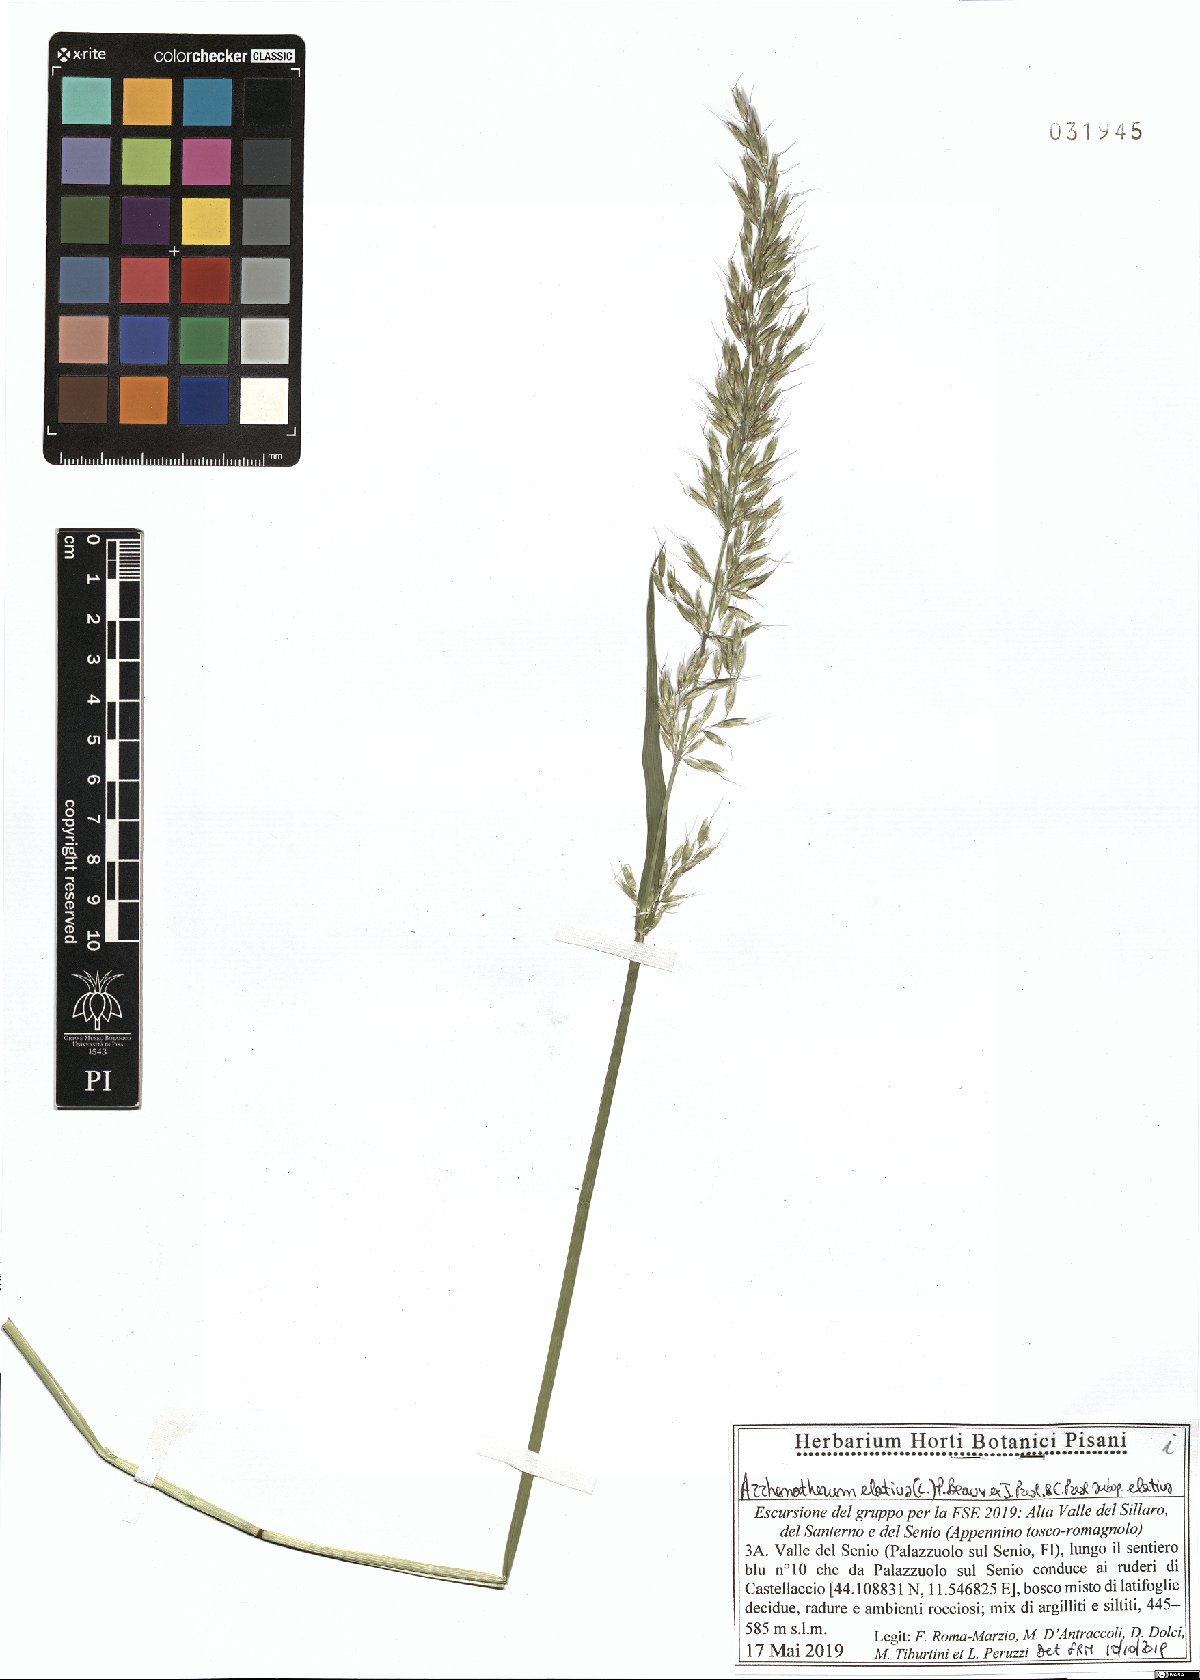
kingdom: Plantae
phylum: Tracheophyta
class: Liliopsida
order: Poales
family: Poaceae
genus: Arrhenatherum
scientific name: Arrhenatherum elatius
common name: Tall oatgrass
